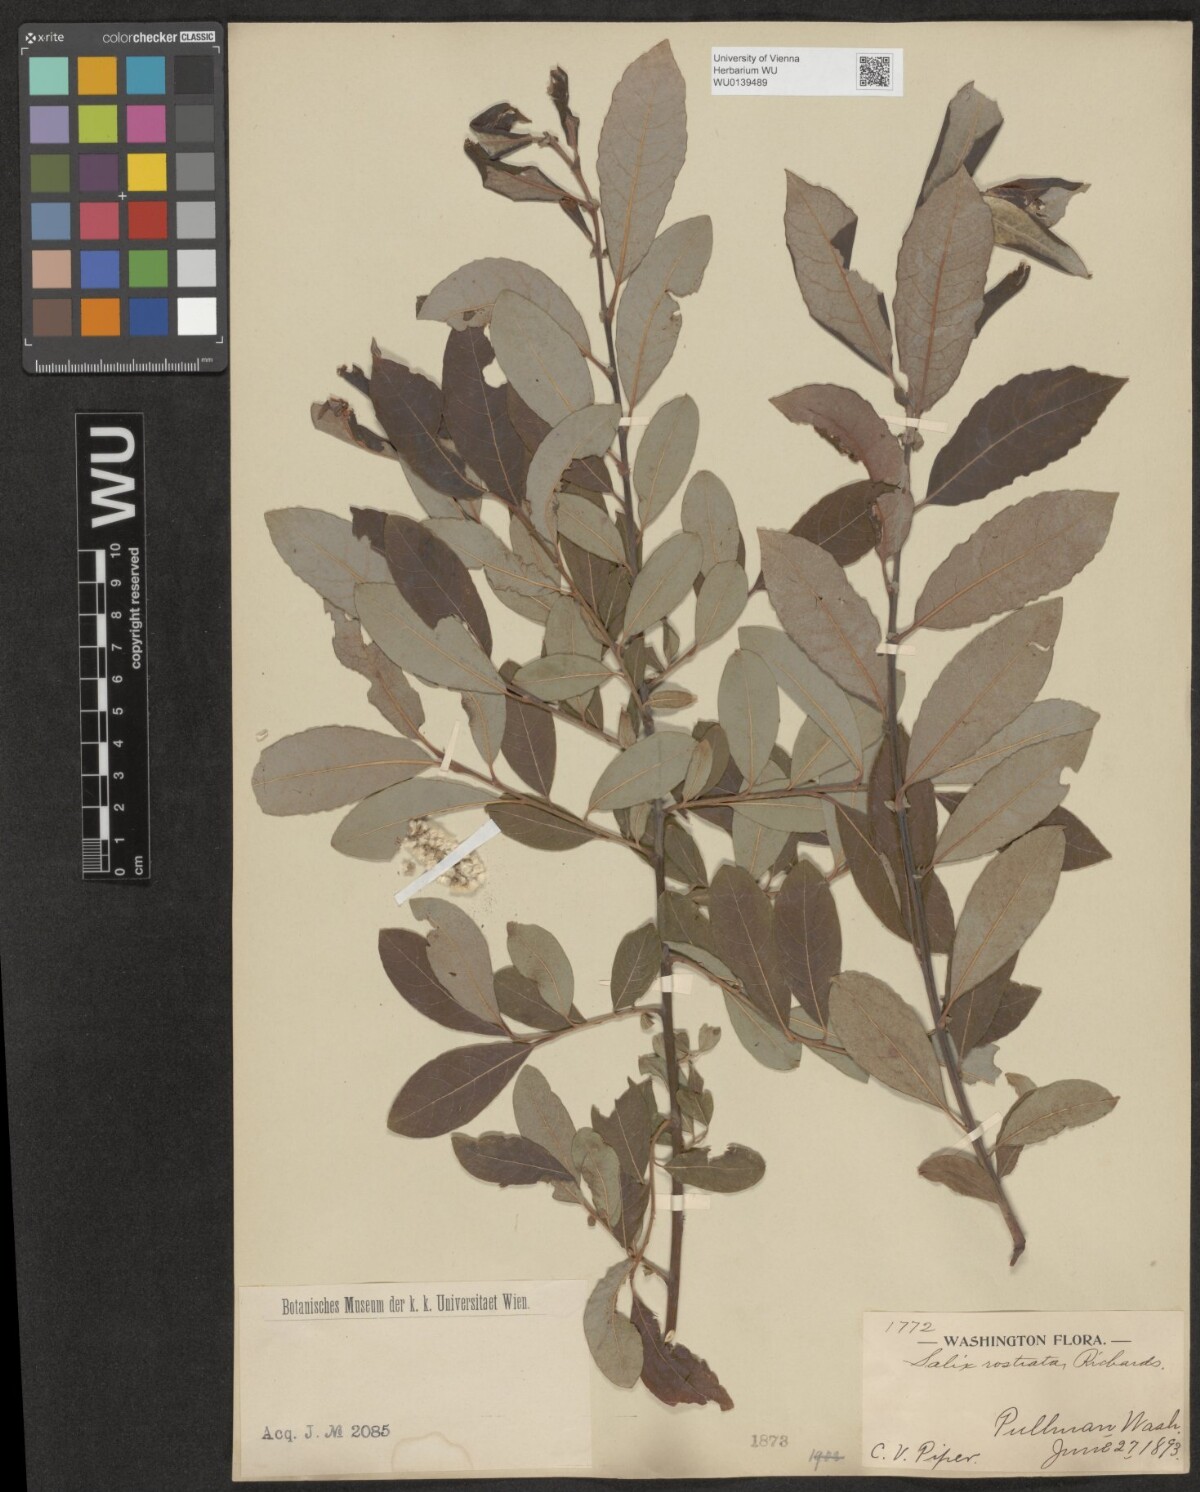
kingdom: Plantae
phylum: Tracheophyta
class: Magnoliopsida
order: Malpighiales
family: Salicaceae
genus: Salix
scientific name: Salix bebbiana
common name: Bebb's willow
